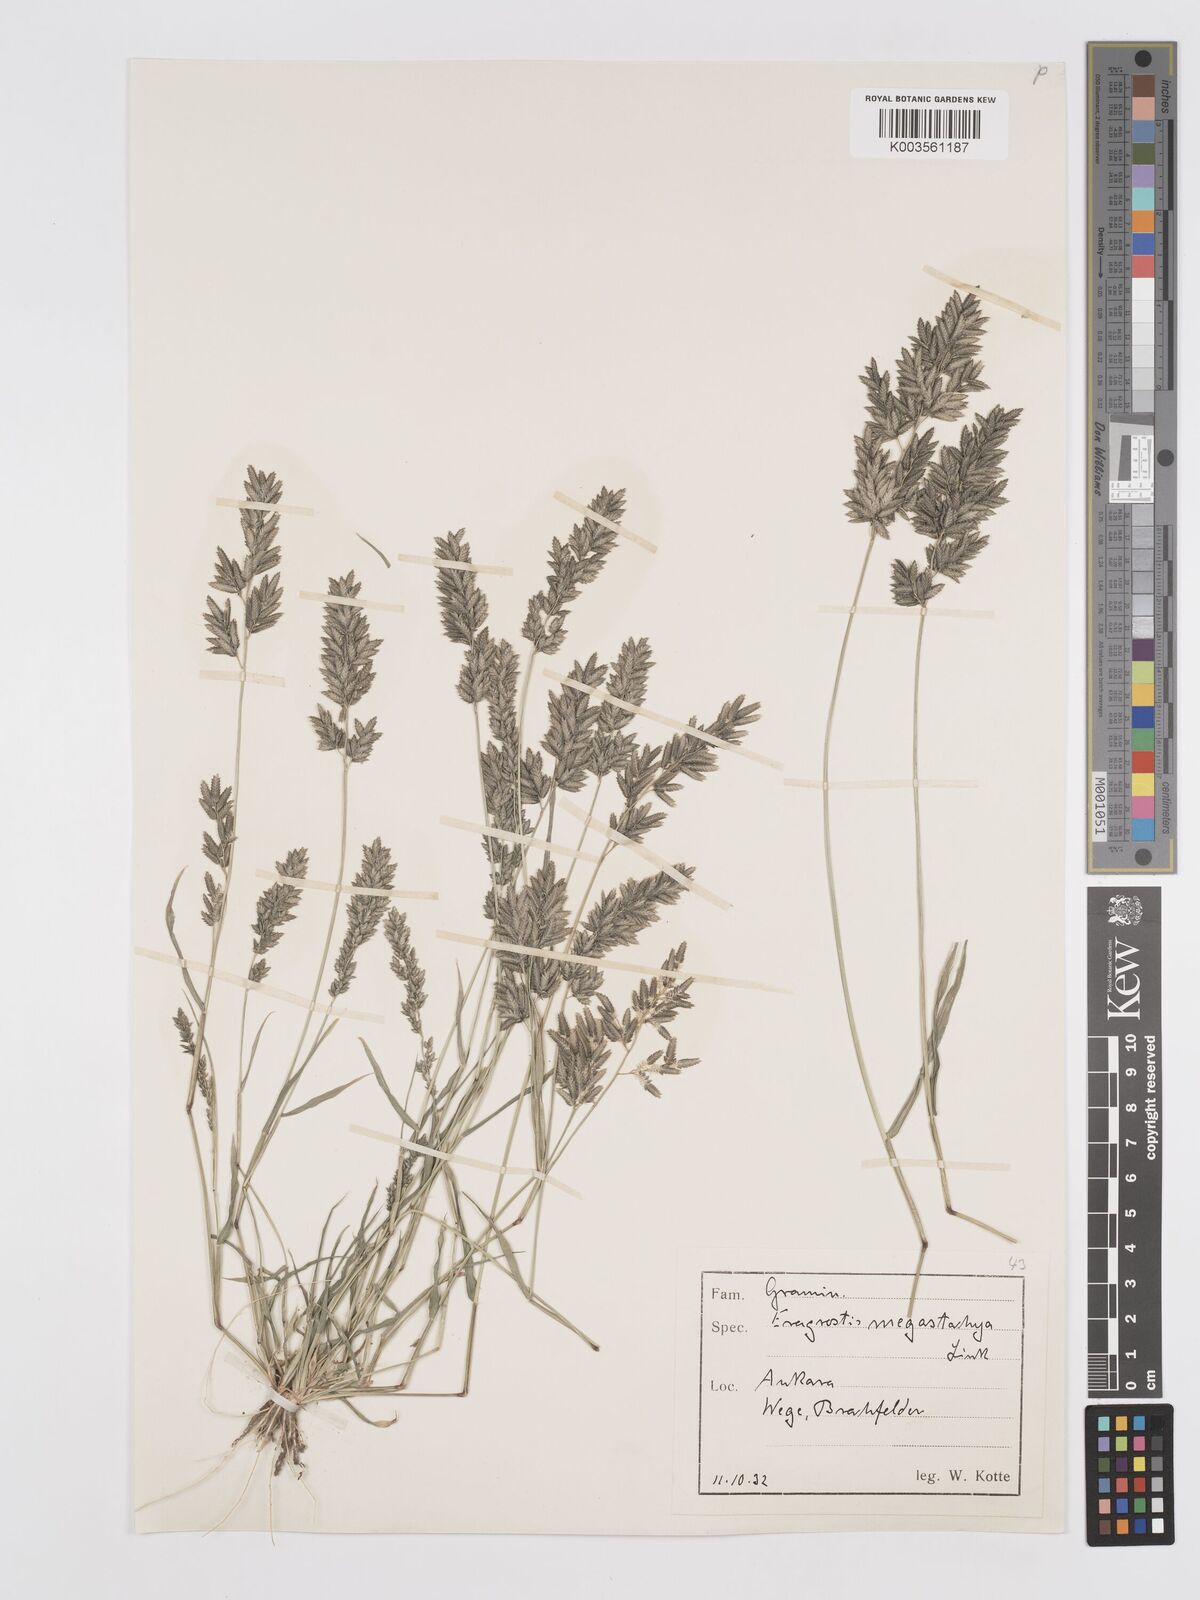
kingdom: Plantae
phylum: Tracheophyta
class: Liliopsida
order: Poales
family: Poaceae
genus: Eragrostis
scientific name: Eragrostis cilianensis
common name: Stinkgrass
